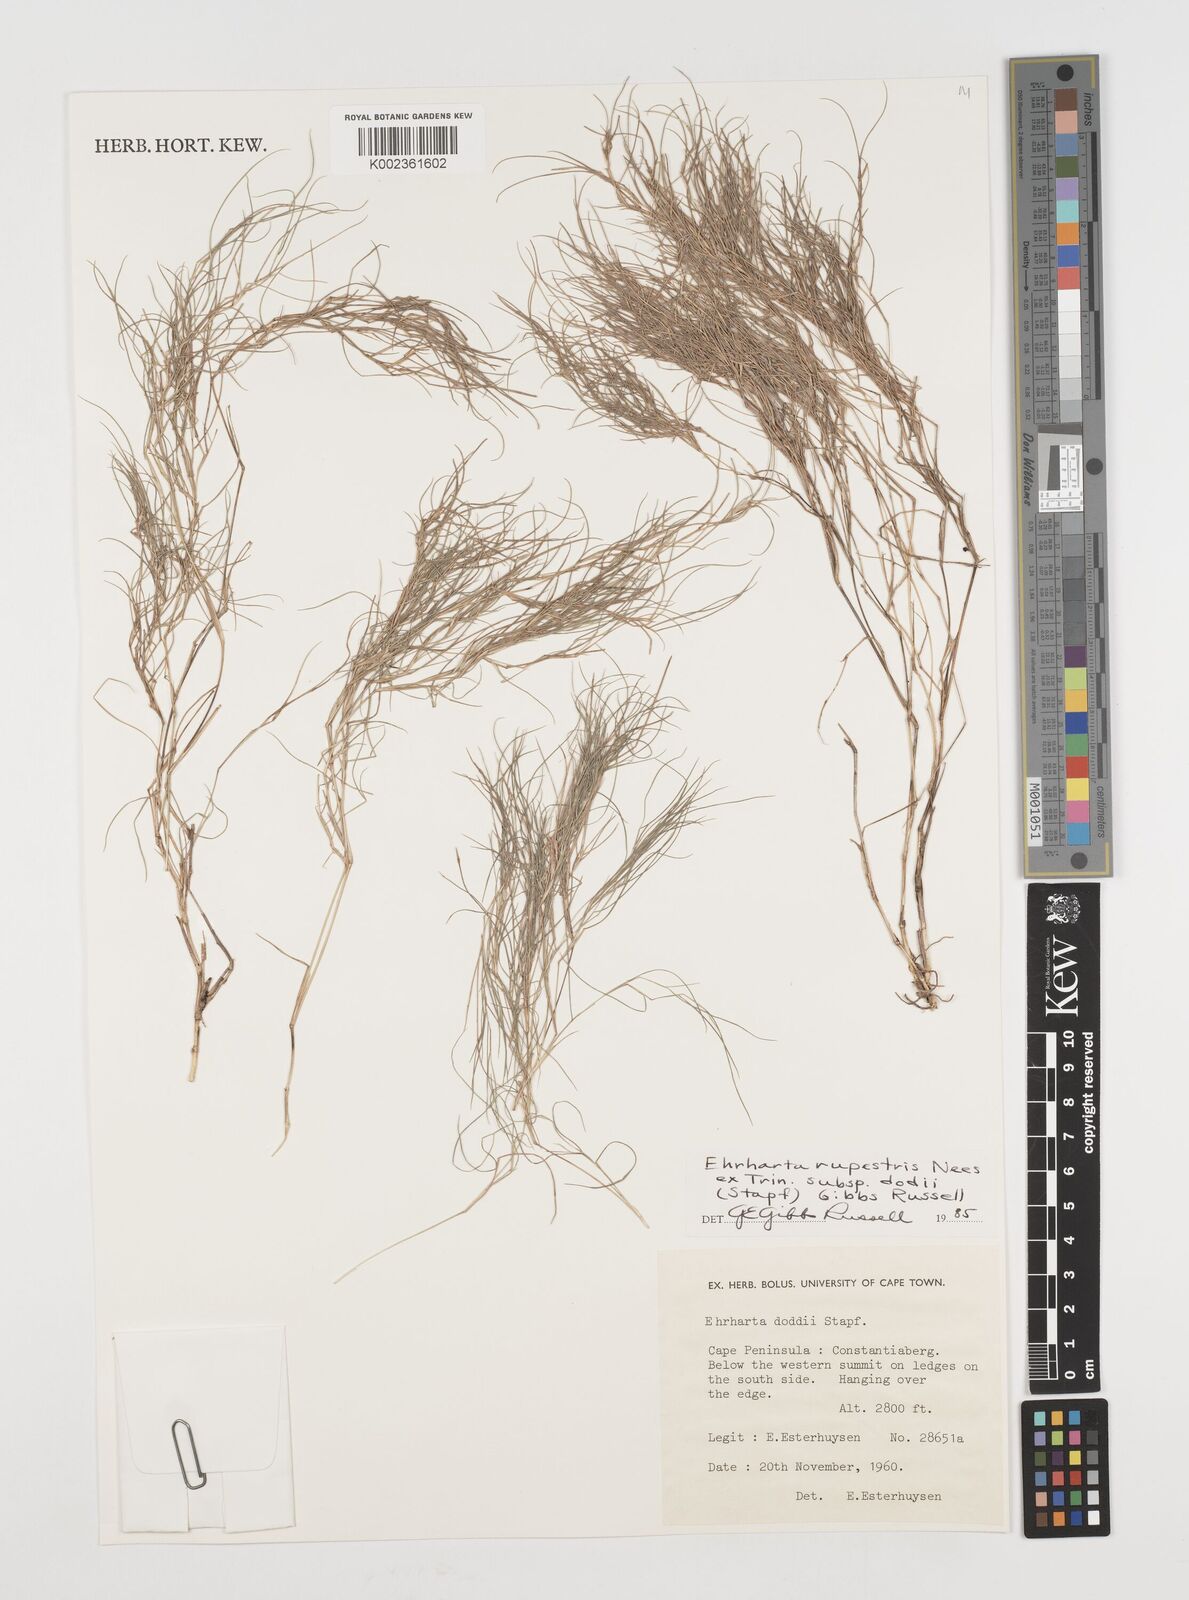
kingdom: Plantae
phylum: Tracheophyta
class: Liliopsida
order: Poales
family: Poaceae
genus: Ehrharta
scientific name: Ehrharta rupestris
